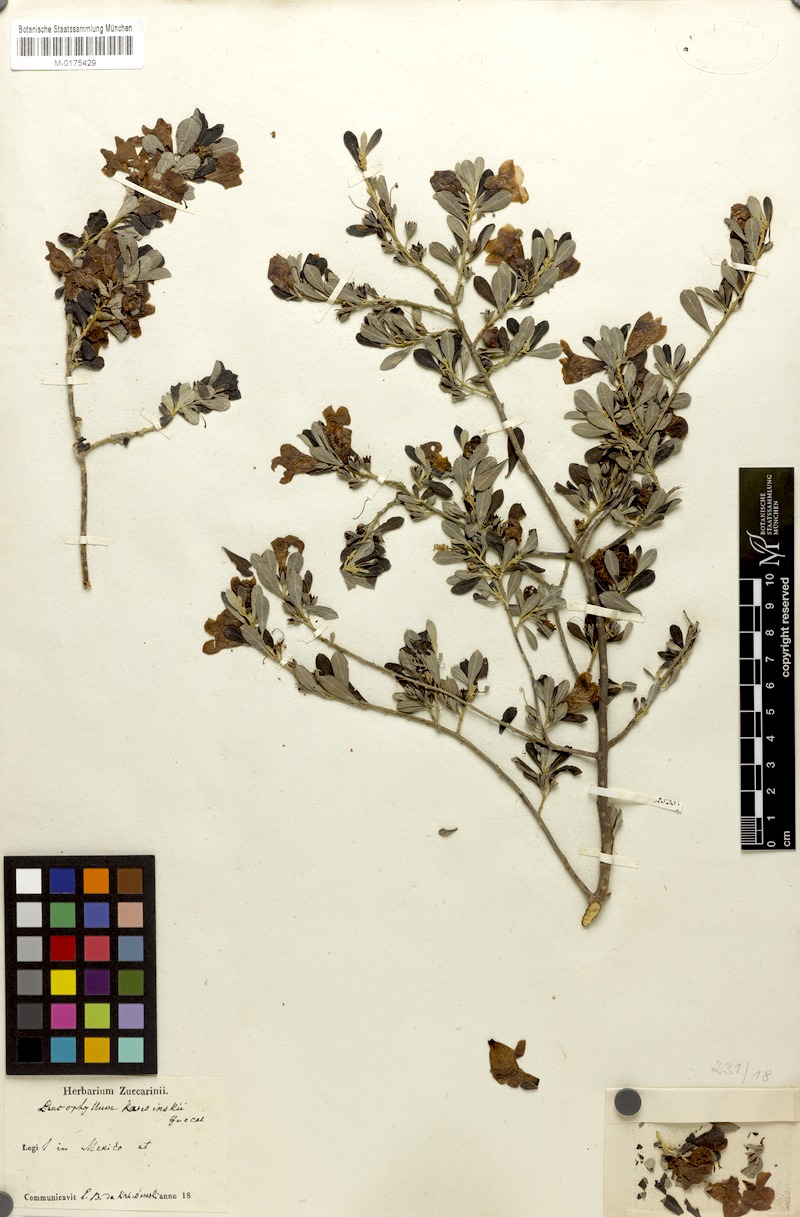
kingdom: Plantae
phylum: Tracheophyta
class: Magnoliopsida
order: Lamiales
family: Scrophulariaceae
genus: Leucophyllum
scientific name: Leucophyllum
